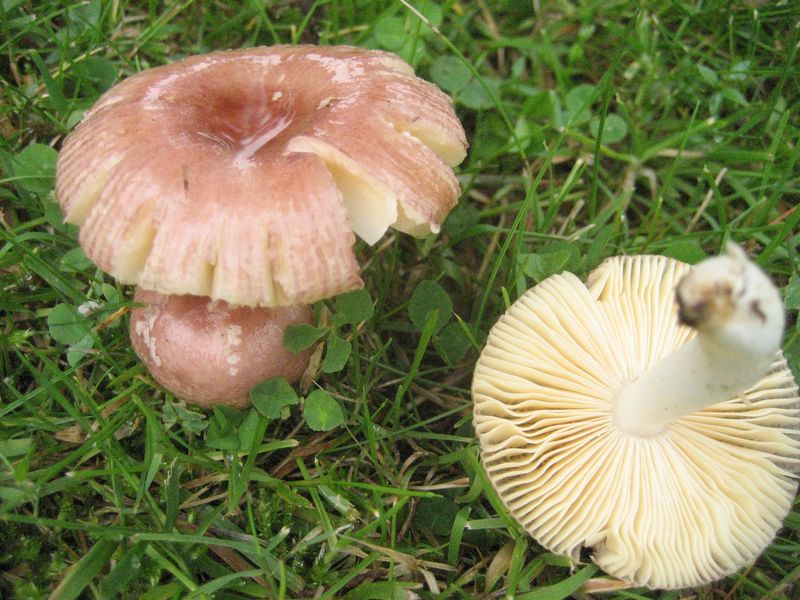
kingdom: Fungi
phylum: Basidiomycota
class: Agaricomycetes
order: Russulales
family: Russulaceae
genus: Russula
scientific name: Russula odorata
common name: duft-skørhat
